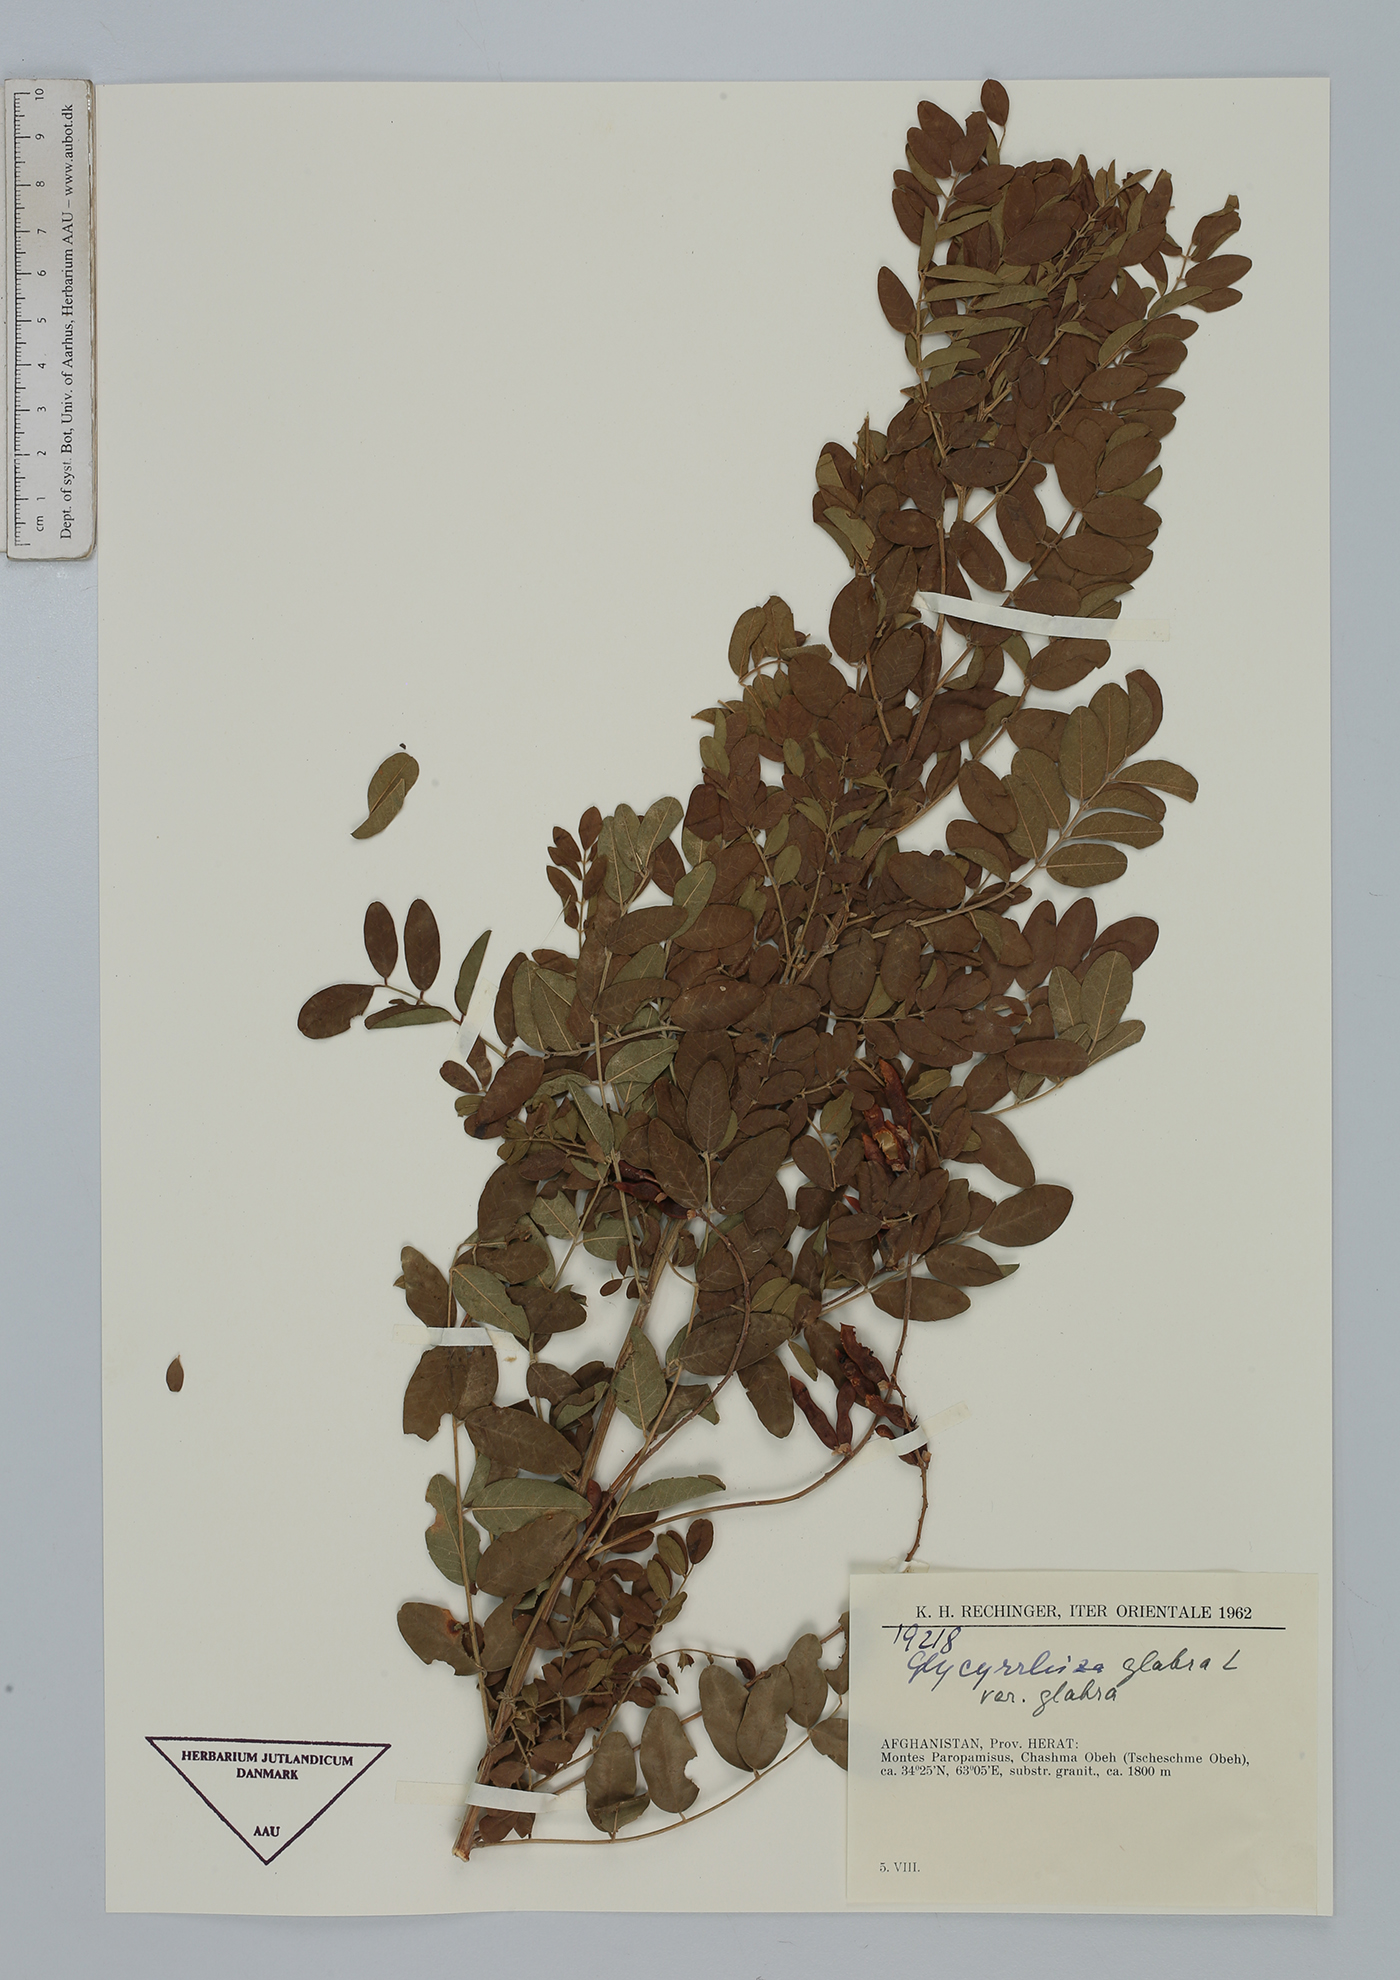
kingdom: Plantae
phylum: Tracheophyta
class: Magnoliopsida
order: Fabales
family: Fabaceae
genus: Glycyrrhiza
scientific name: Glycyrrhiza glabra
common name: Liquorice
